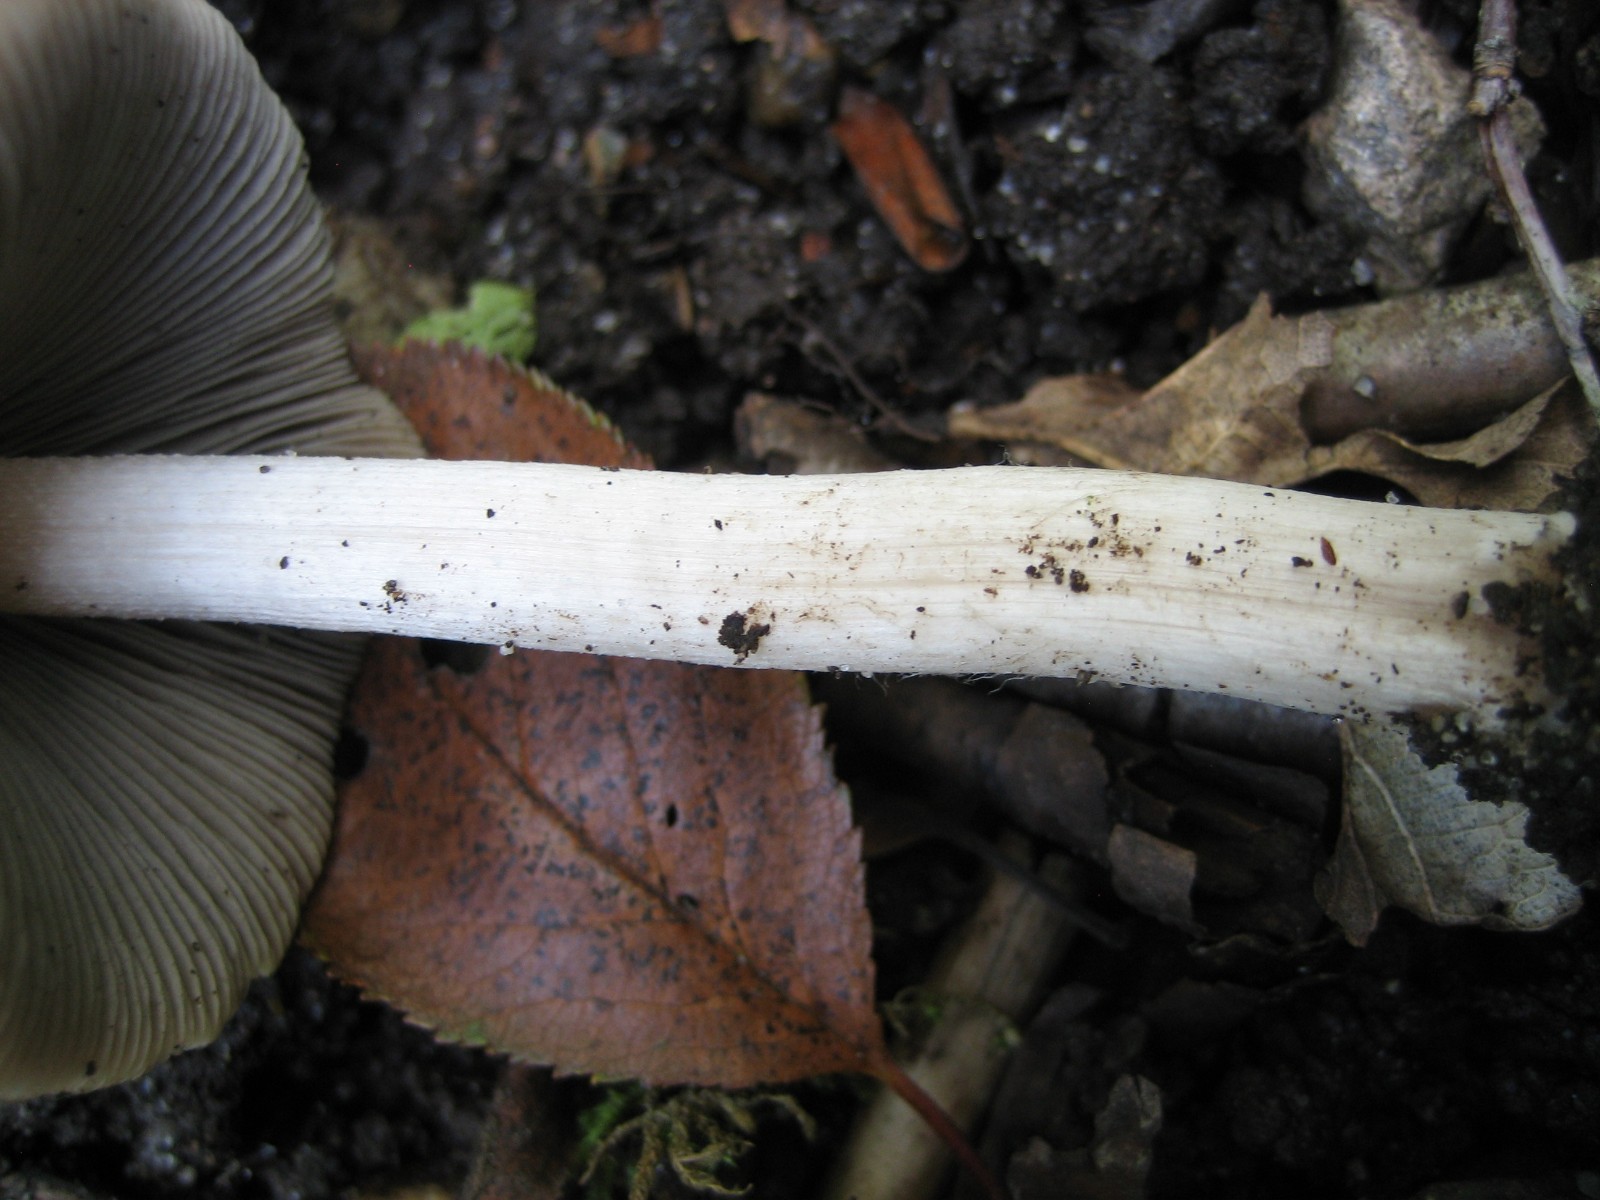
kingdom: Fungi
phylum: Basidiomycota
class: Agaricomycetes
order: Agaricales
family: Psathyrellaceae
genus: Psathyrella
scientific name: Psathyrella fusca
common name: gråbladet mørkhat
